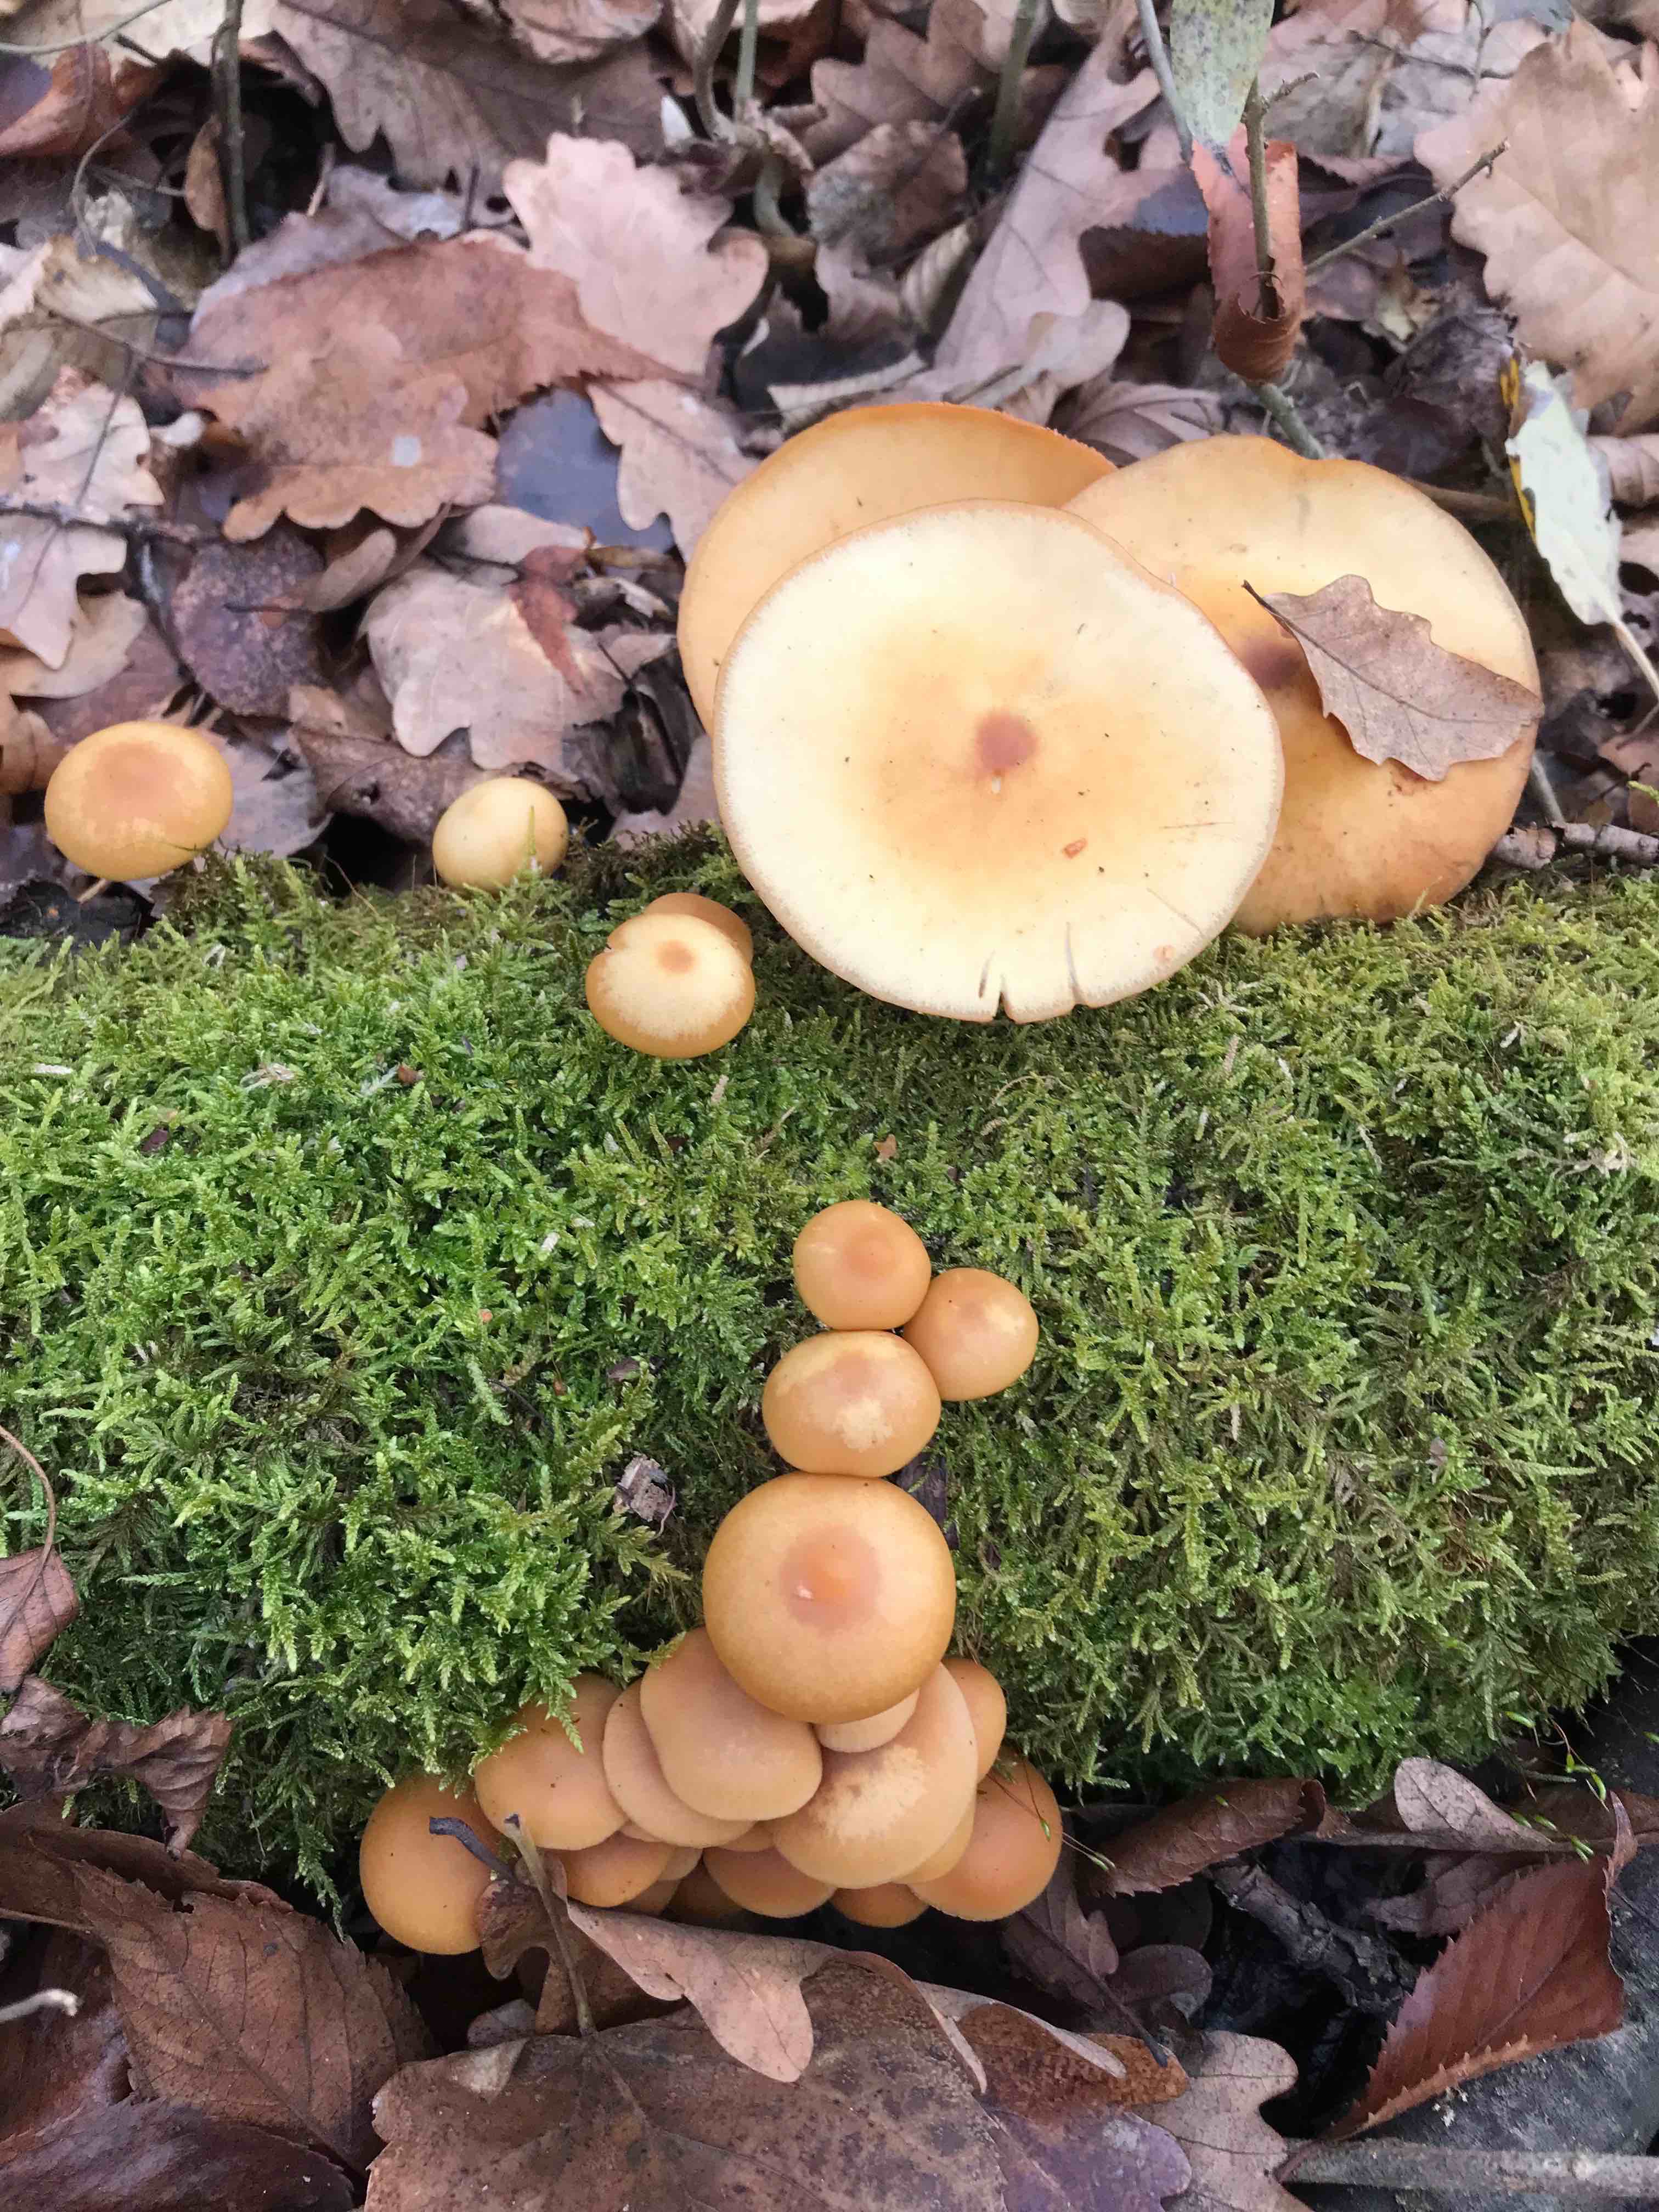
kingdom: Fungi
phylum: Basidiomycota
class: Agaricomycetes
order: Agaricales
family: Hymenogastraceae
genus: Galerina
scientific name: Galerina marginata
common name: randbæltet hjelmhat
